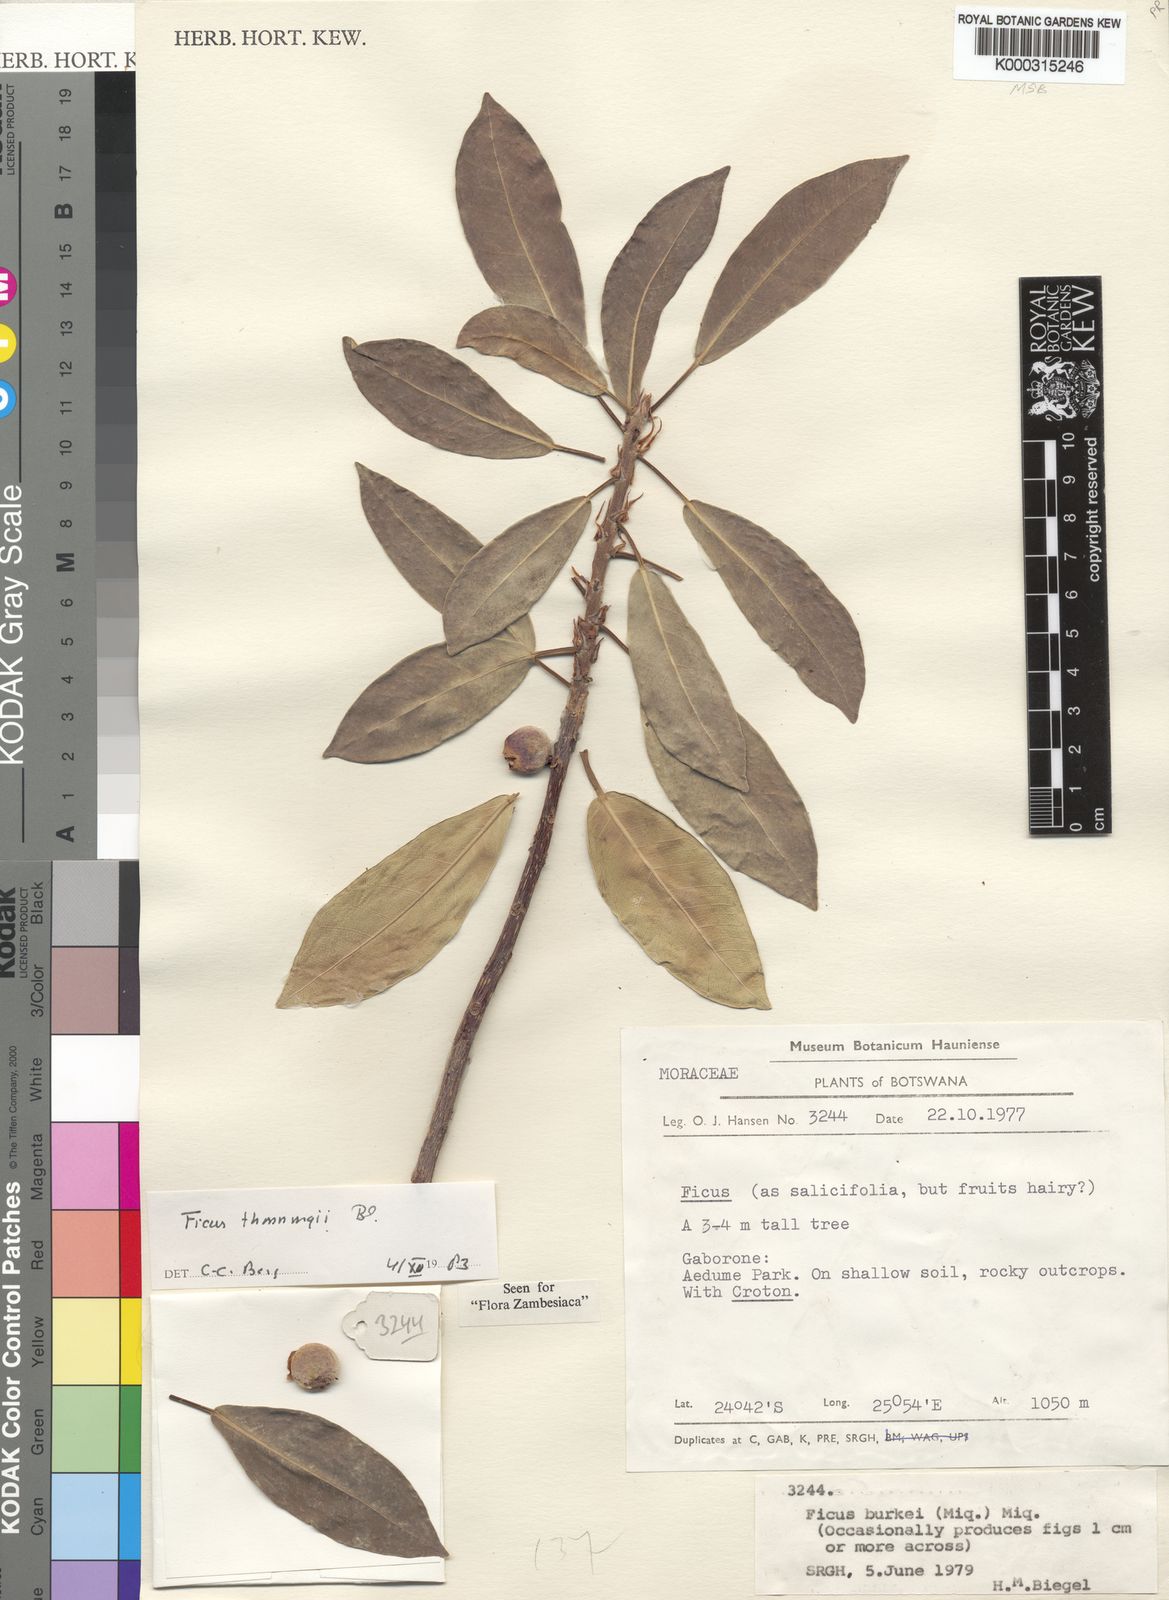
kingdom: Plantae
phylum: Tracheophyta
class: Magnoliopsida
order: Rosales
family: Moraceae
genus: Ficus
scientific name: Ficus thonningii
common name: Fig
